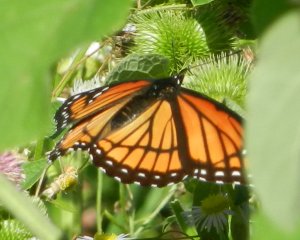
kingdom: Animalia
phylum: Arthropoda
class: Insecta
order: Lepidoptera
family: Nymphalidae
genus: Limenitis
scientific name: Limenitis archippus
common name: Viceroy
